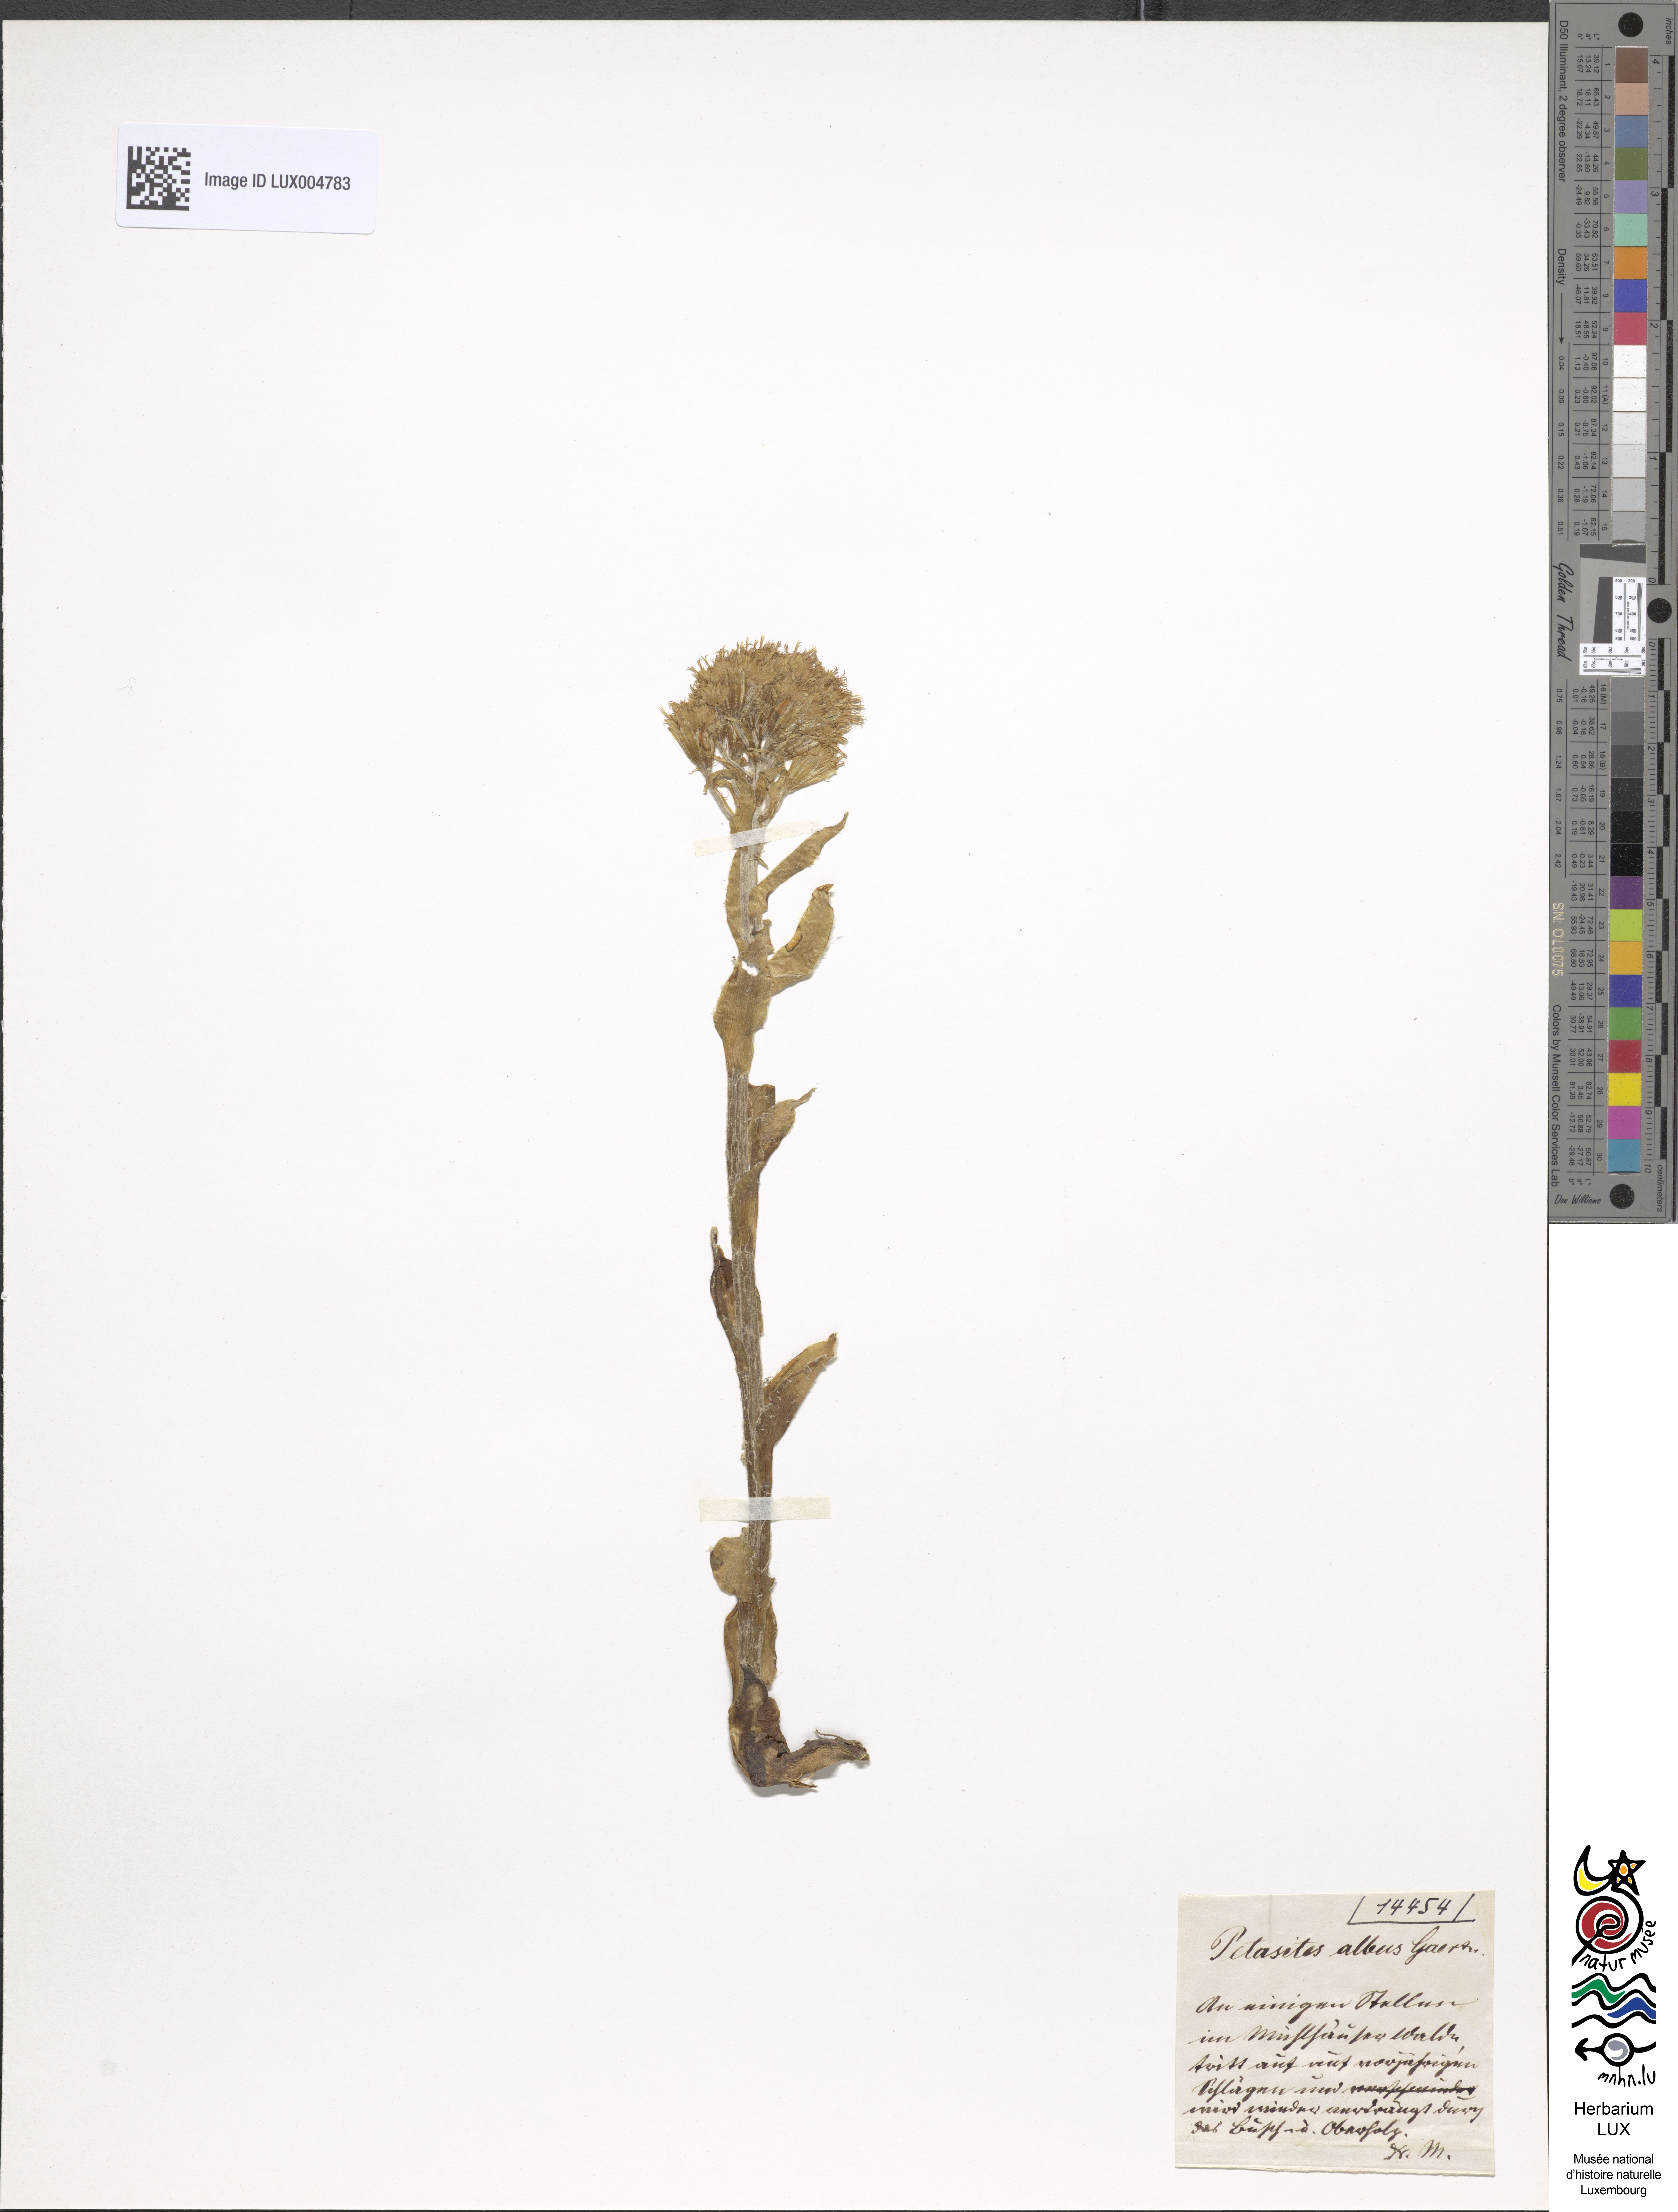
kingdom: Plantae
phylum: Tracheophyta
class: Magnoliopsida
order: Asterales
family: Asteraceae
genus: Petasites
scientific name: Petasites albus
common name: White butterbur
